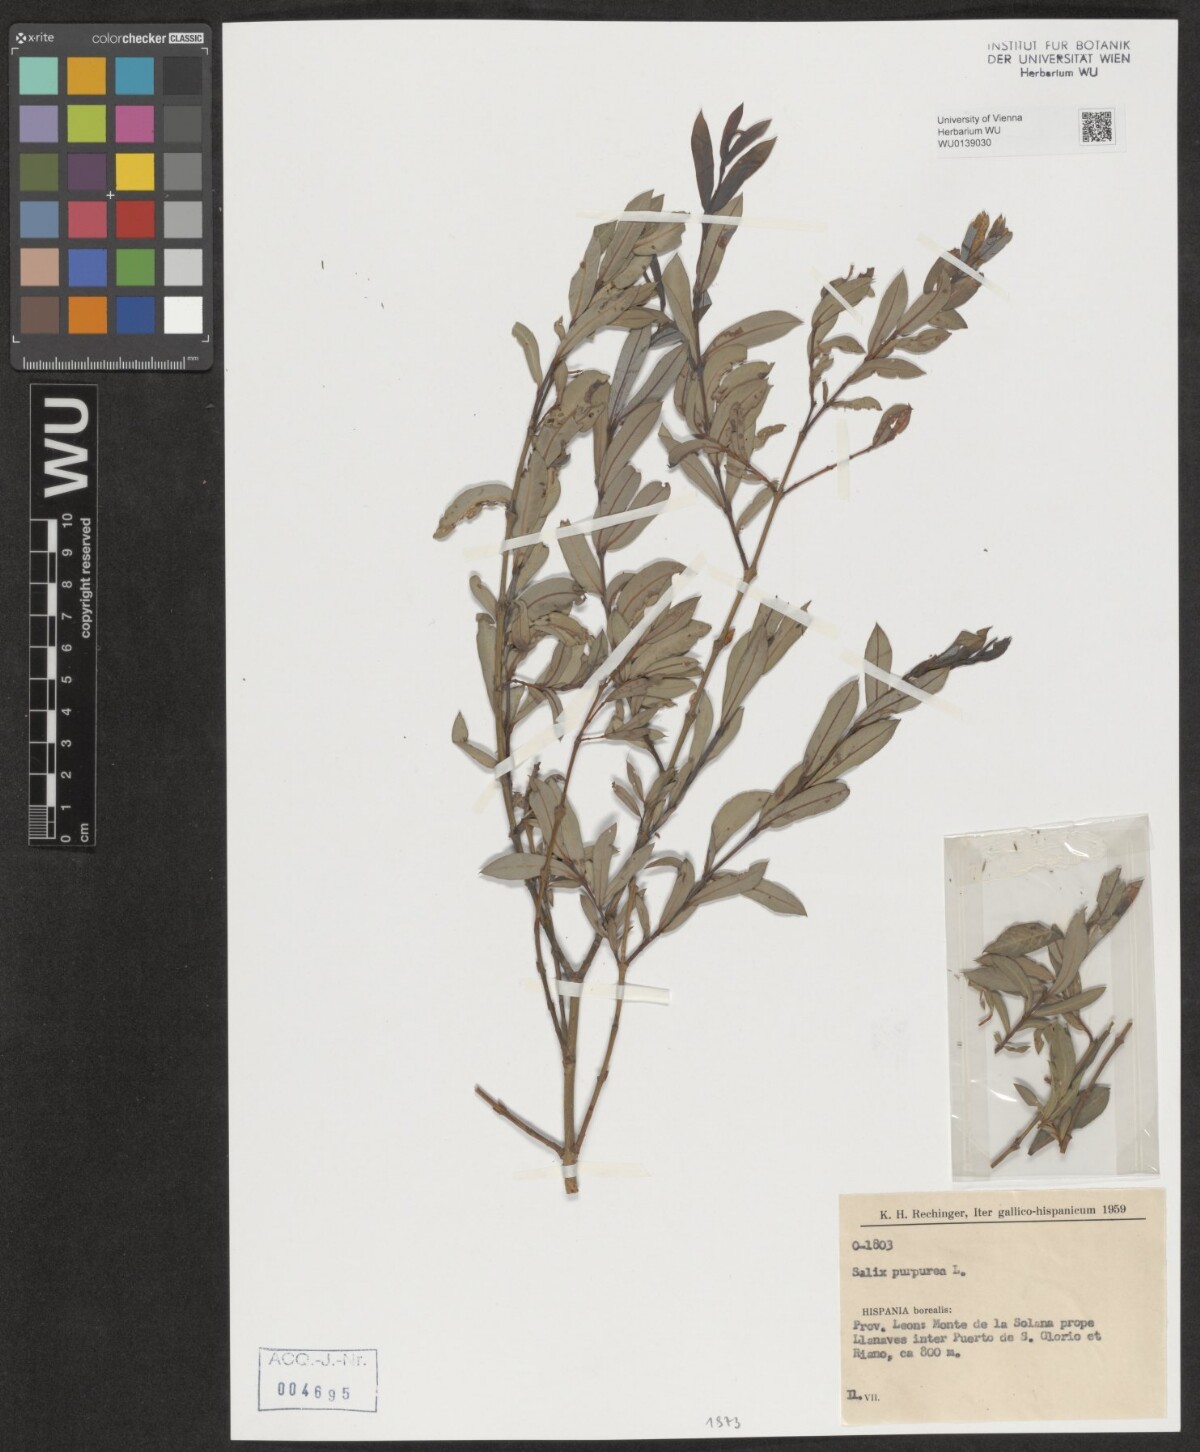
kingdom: Plantae
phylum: Tracheophyta
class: Magnoliopsida
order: Malpighiales
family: Salicaceae
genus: Salix
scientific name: Salix purpurea
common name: Purple willow
